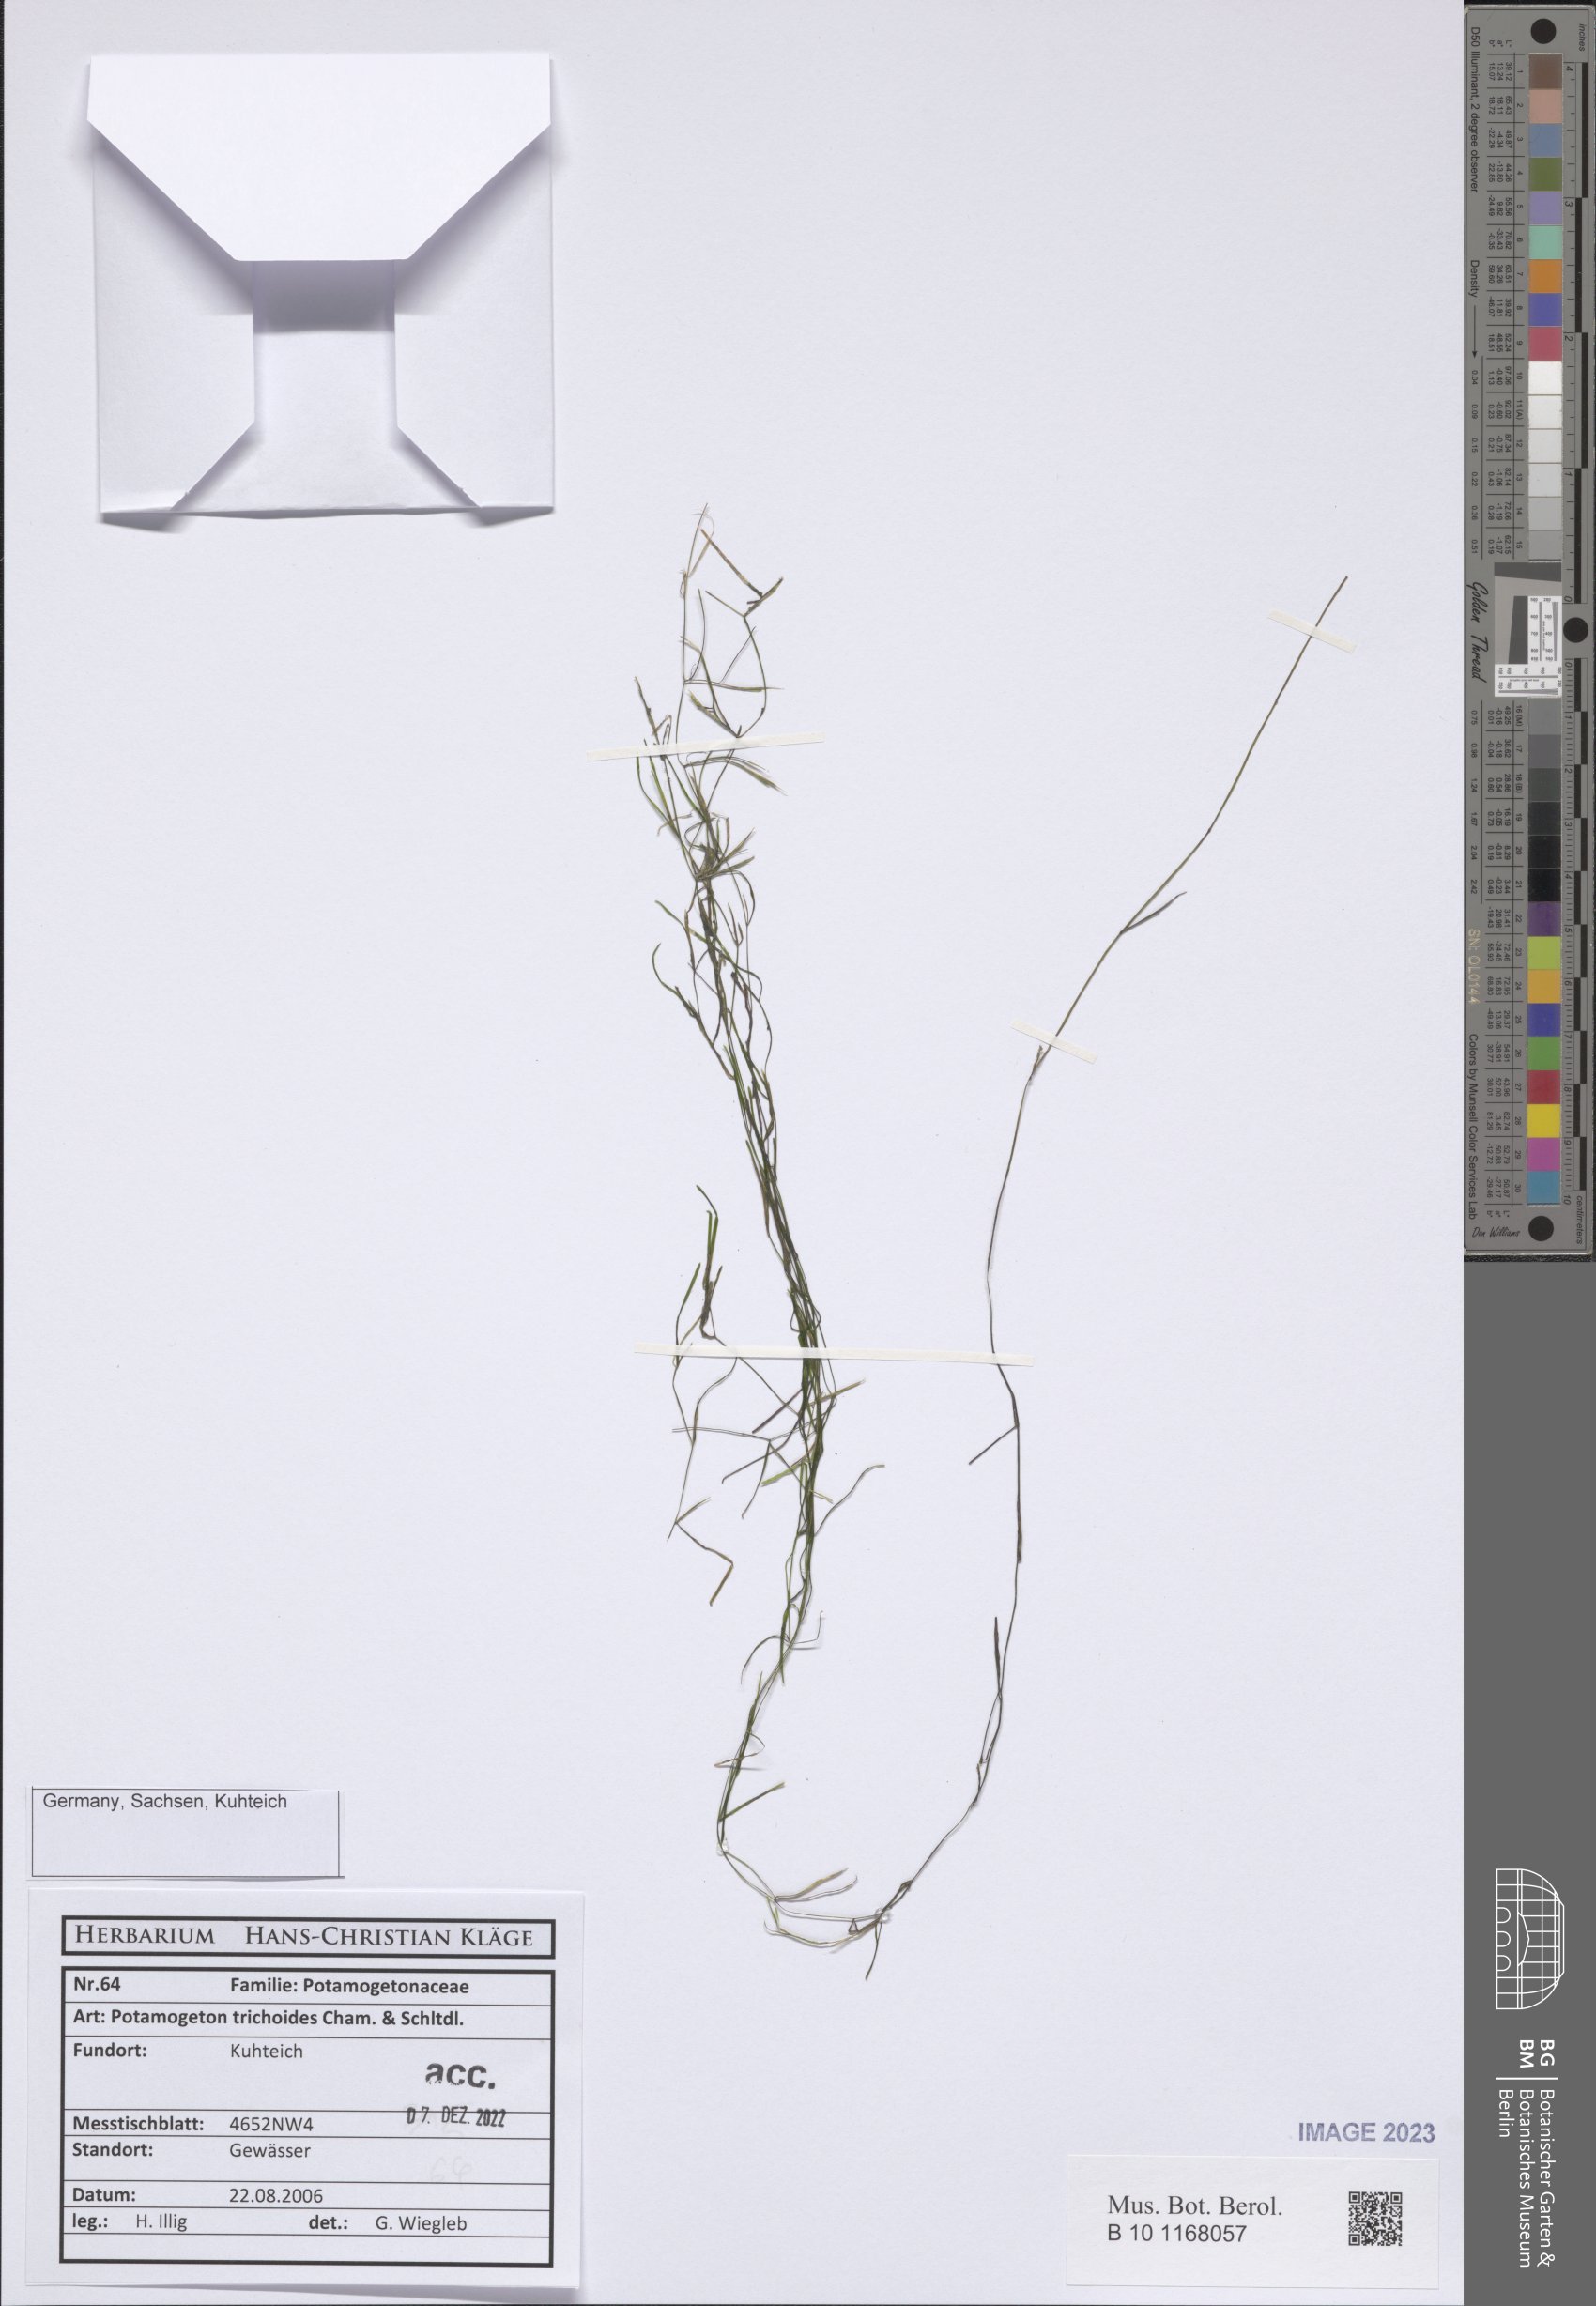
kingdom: Plantae
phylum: Tracheophyta
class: Liliopsida
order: Alismatales
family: Potamogetonaceae
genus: Potamogeton
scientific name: Potamogeton trichoides
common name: Hairlike pondweed
